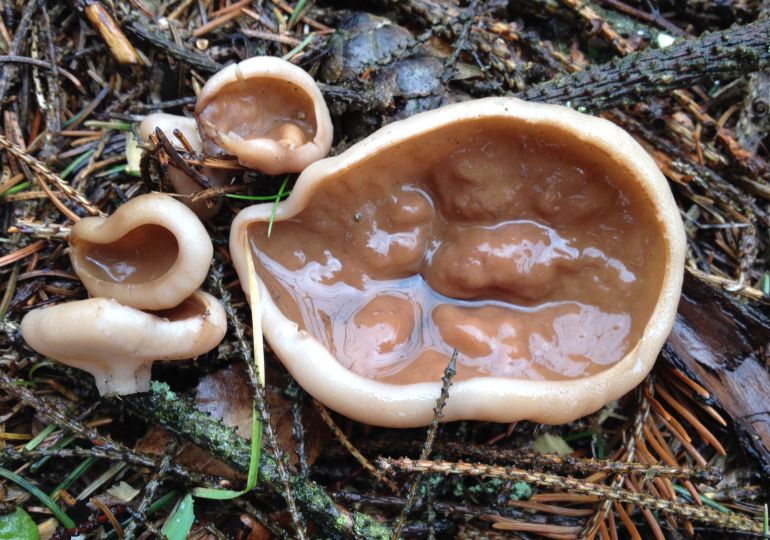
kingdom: Fungi
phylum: Ascomycota
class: Pezizomycetes
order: Pezizales
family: Discinaceae
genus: Discina
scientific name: Discina ancilis
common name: udbredt stenmorkel
